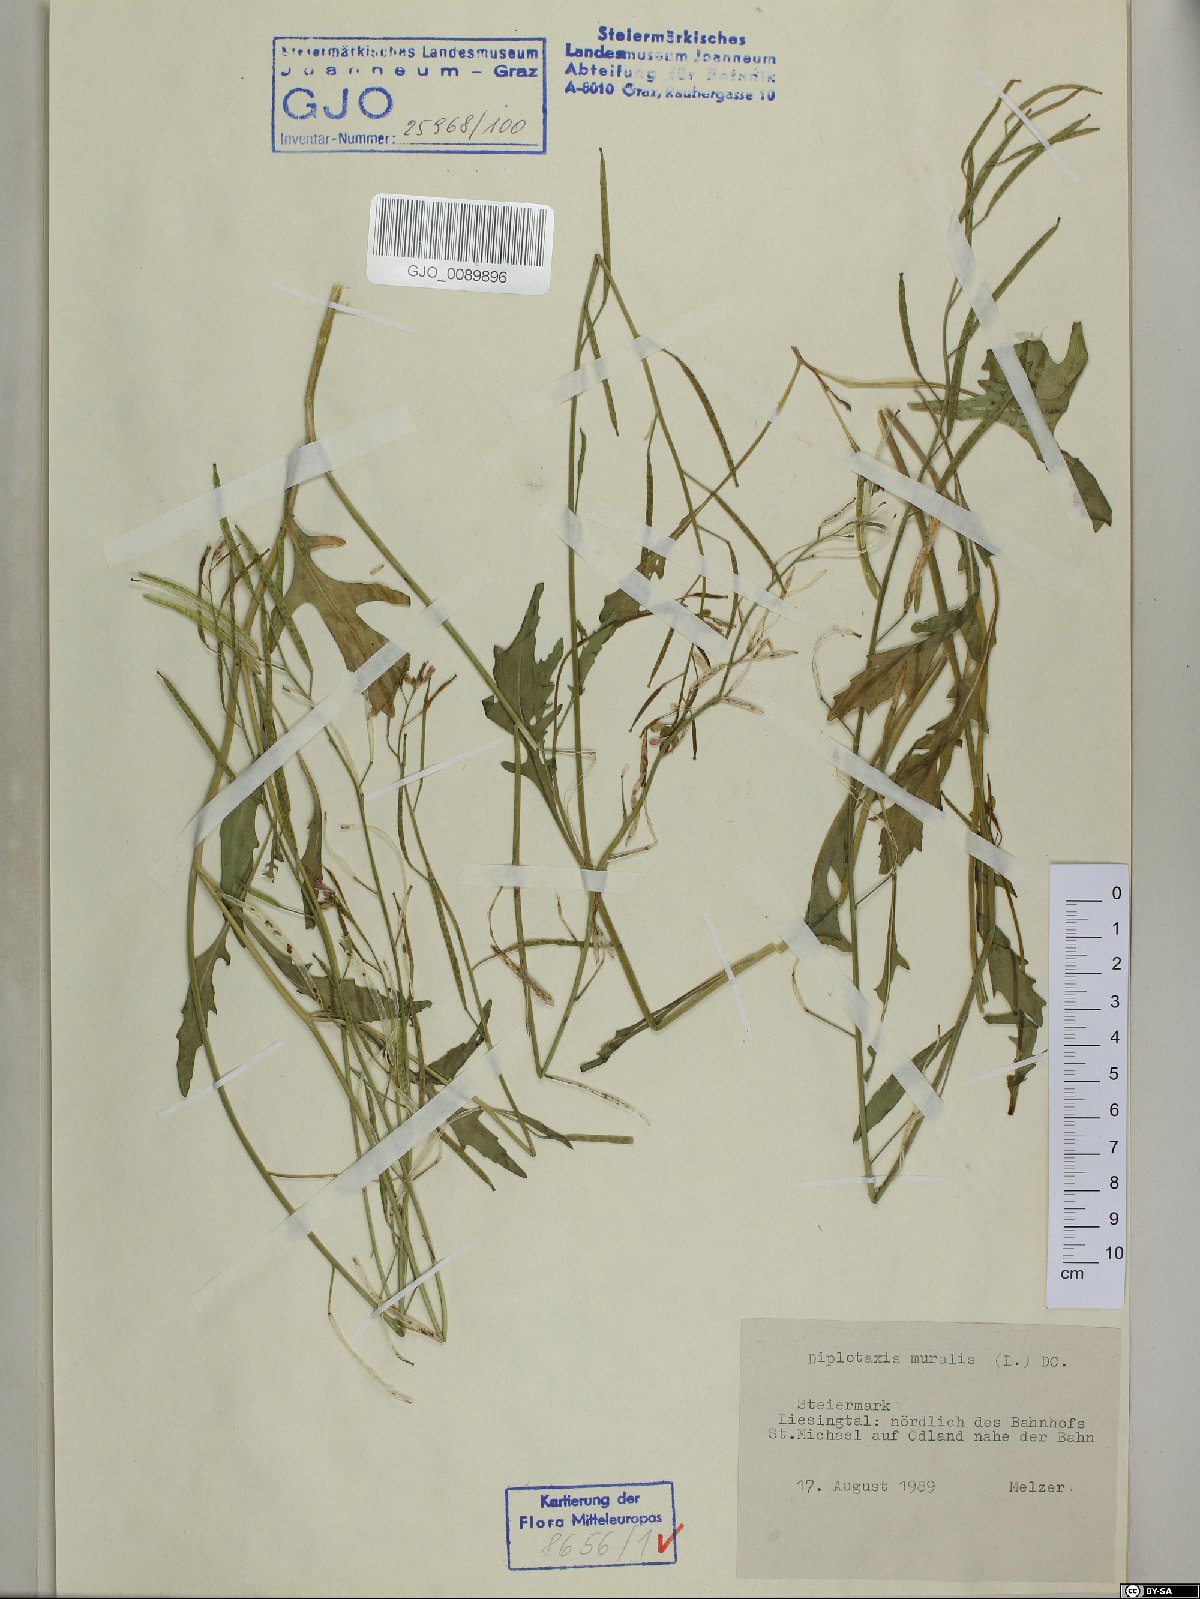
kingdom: Plantae
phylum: Tracheophyta
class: Magnoliopsida
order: Brassicales
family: Brassicaceae
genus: Diplotaxis
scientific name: Diplotaxis muralis
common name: Annual wall-rocket
